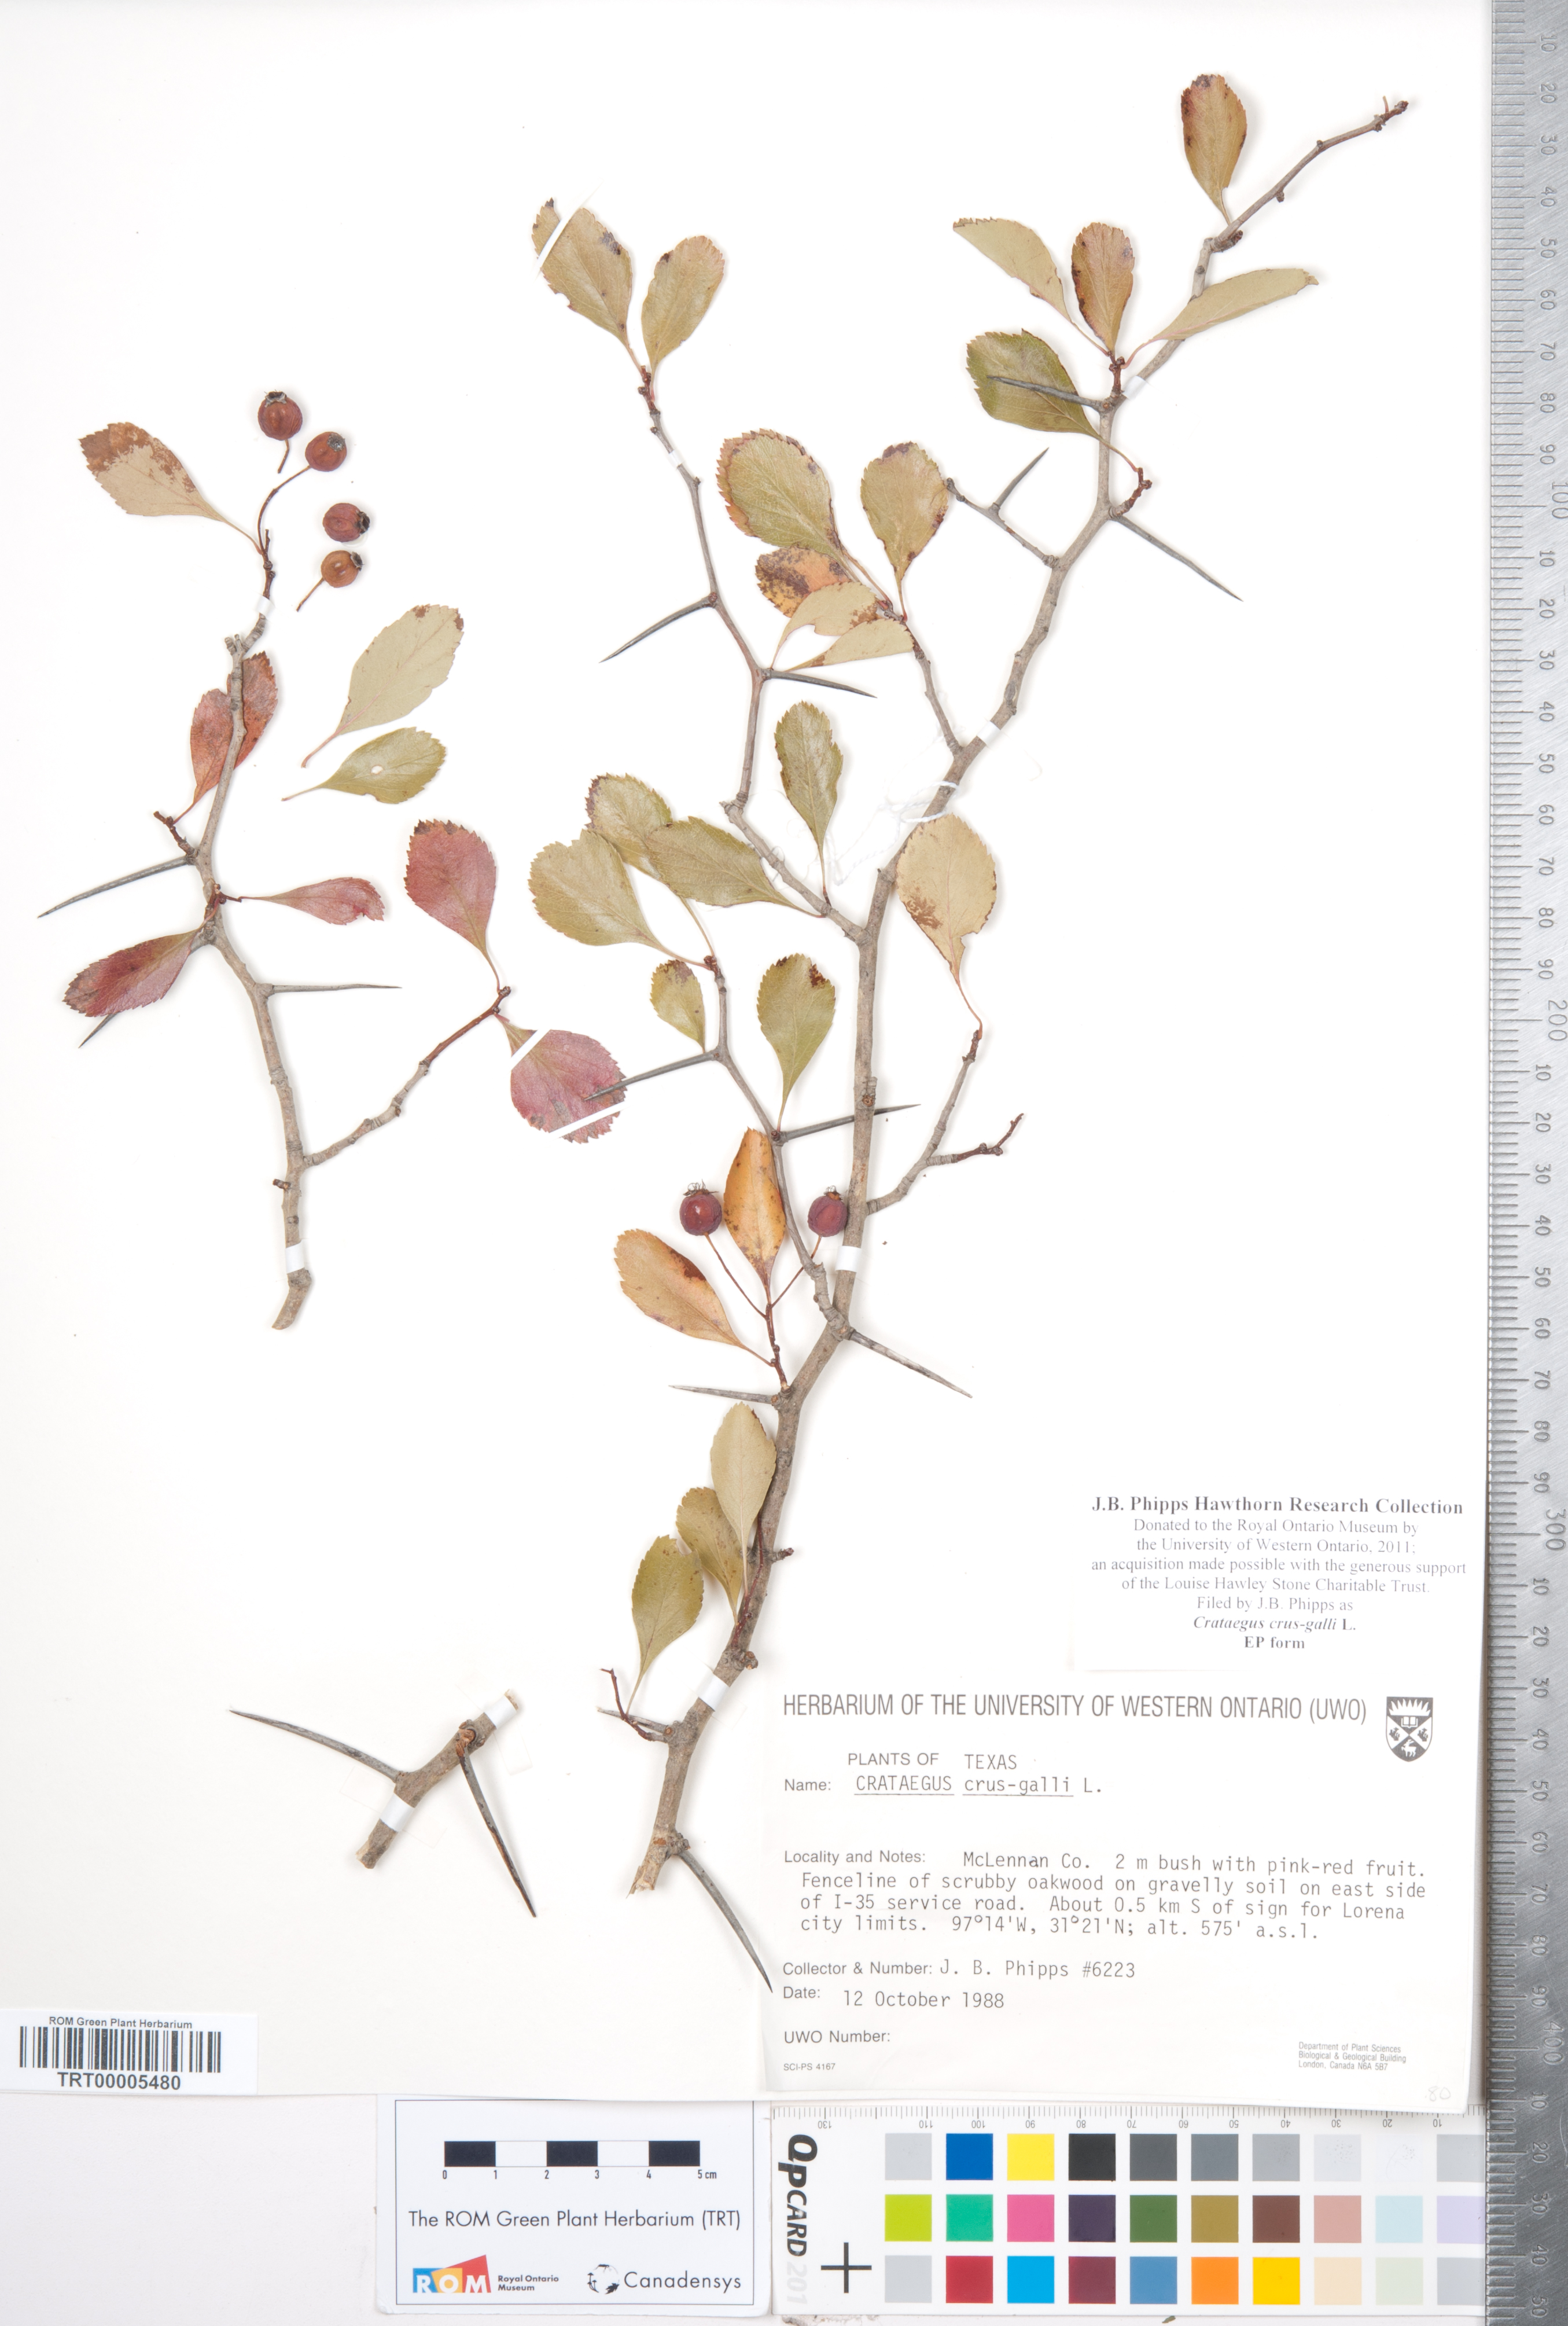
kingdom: Plantae
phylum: Tracheophyta
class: Magnoliopsida
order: Rosales
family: Rosaceae
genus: Crataegus
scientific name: Crataegus crus-galli
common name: Cockspurthorn
